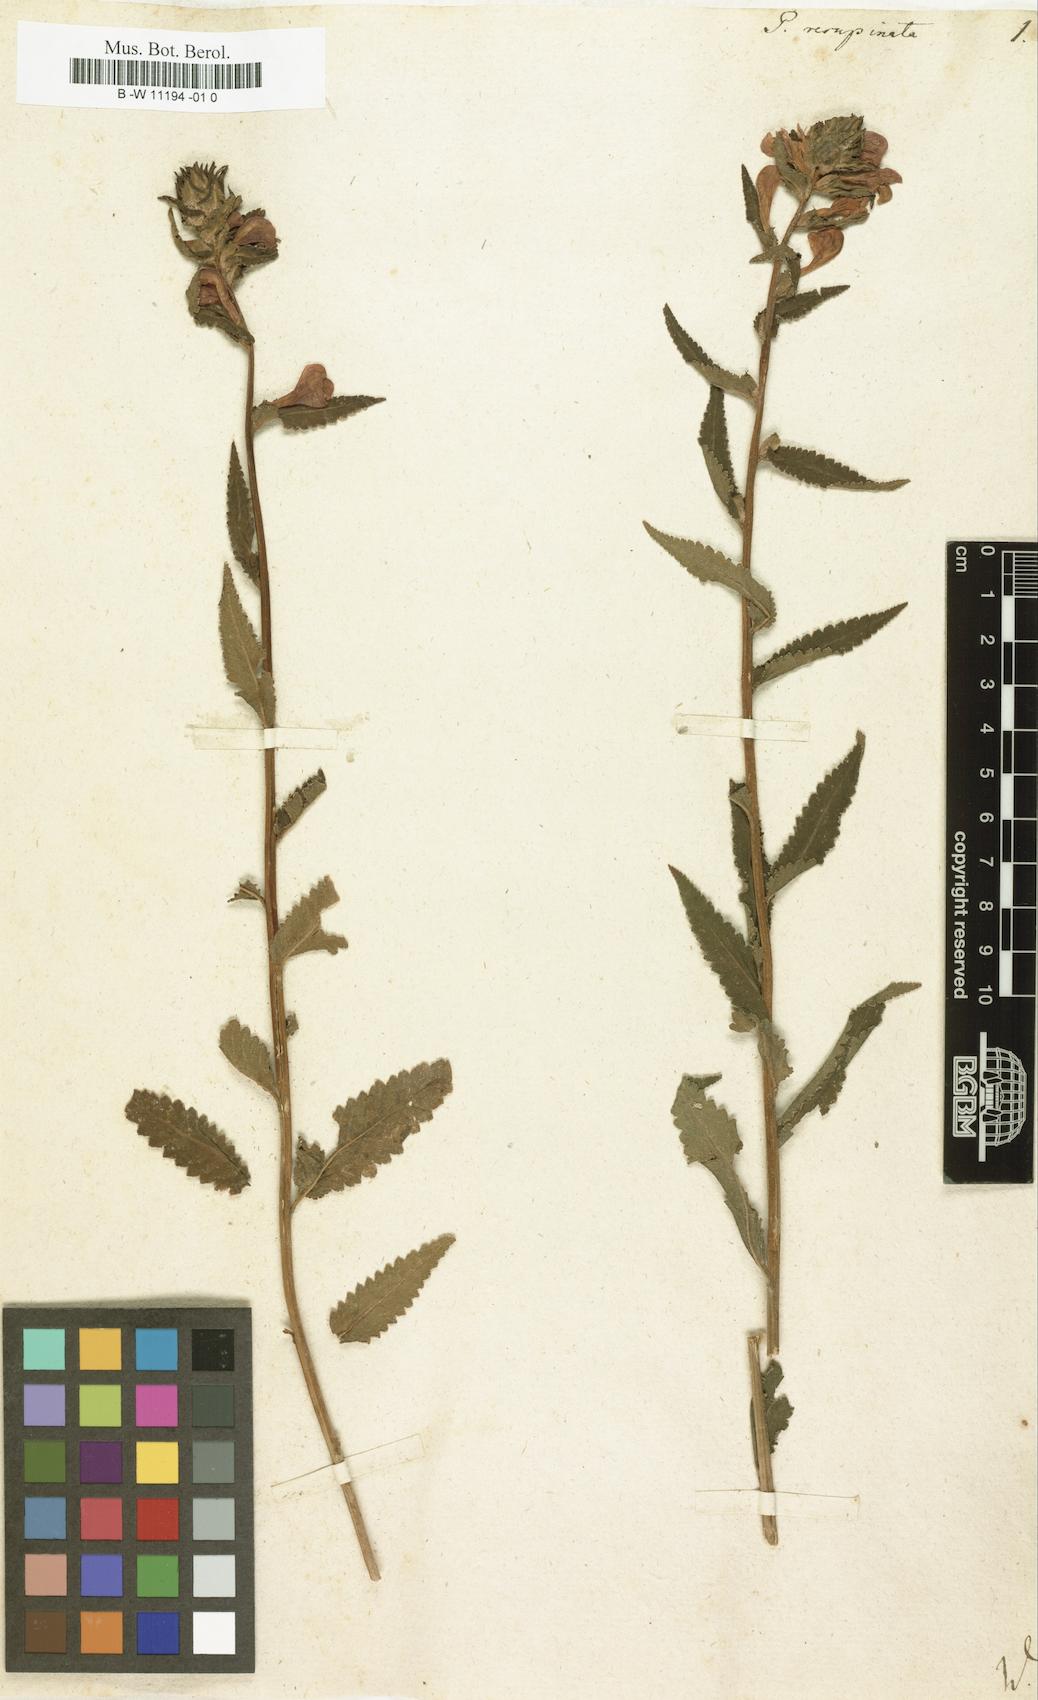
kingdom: Plantae
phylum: Tracheophyta
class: Magnoliopsida
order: Lamiales
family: Orobanchaceae
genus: Pedicularis
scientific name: Pedicularis resupinata
